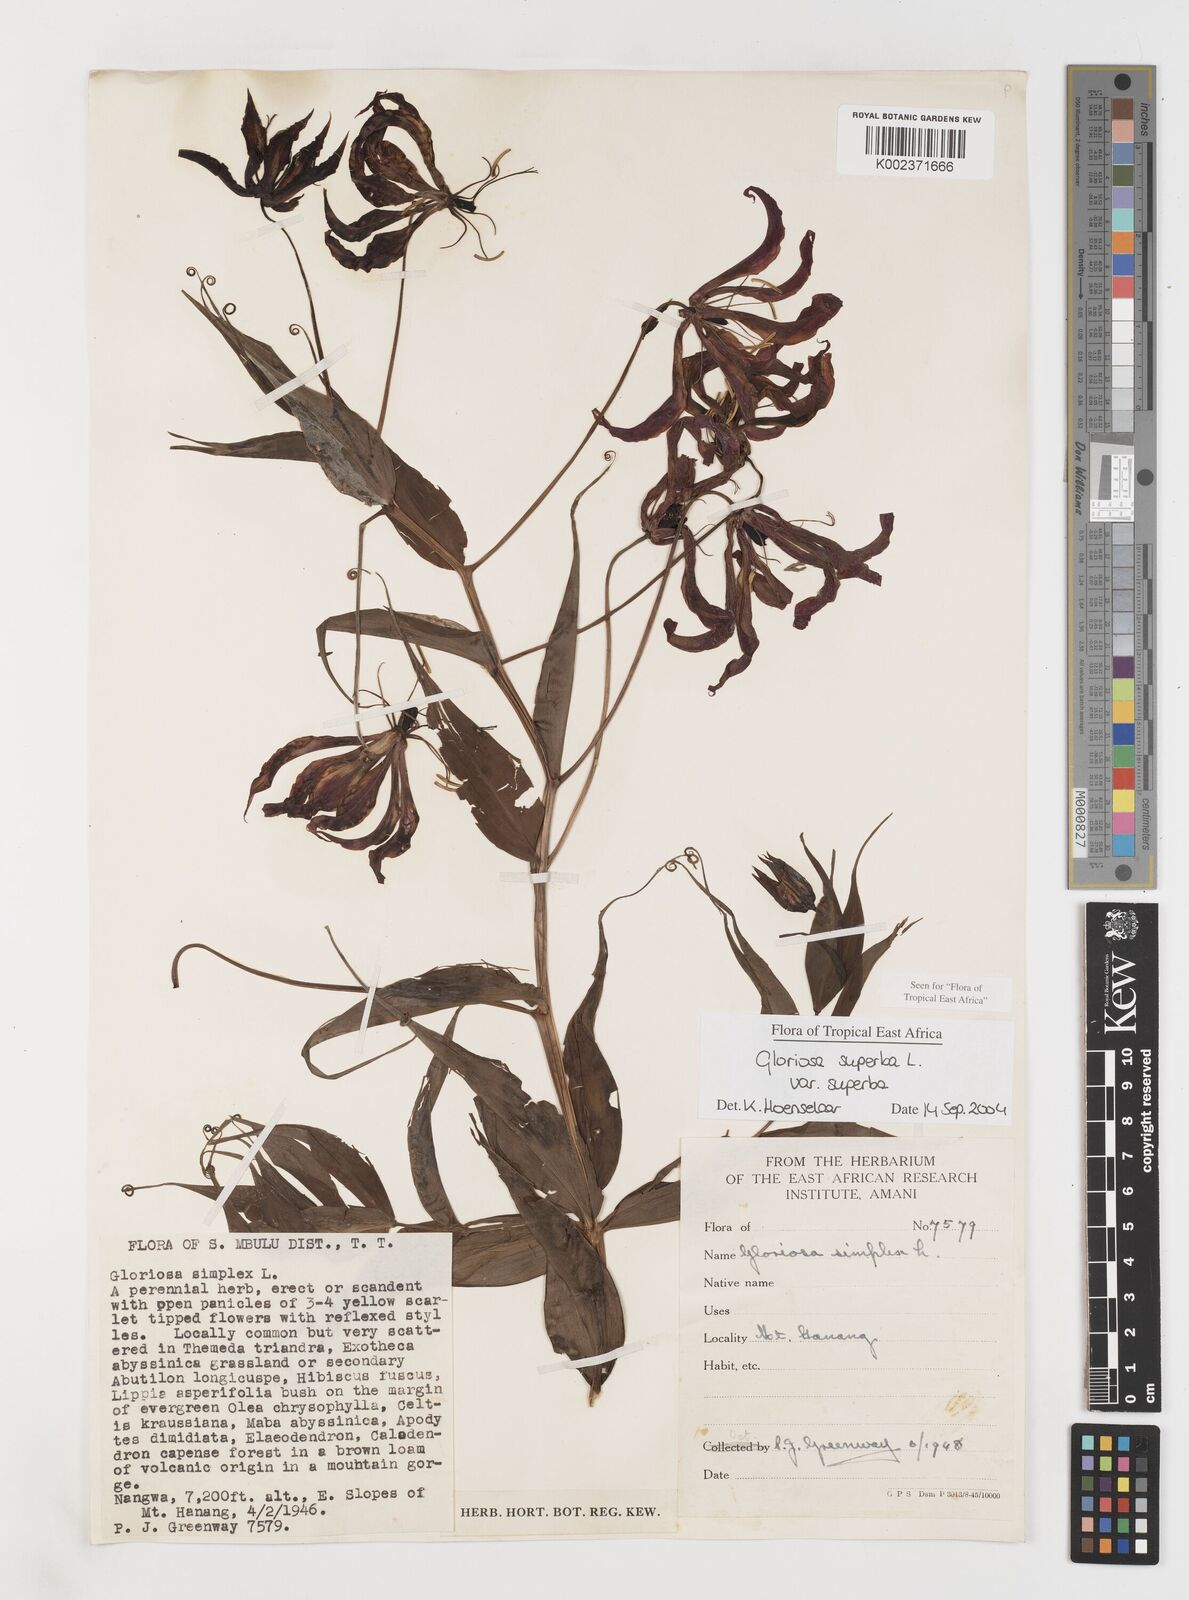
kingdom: Plantae
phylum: Tracheophyta
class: Liliopsida
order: Liliales
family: Colchicaceae
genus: Gloriosa
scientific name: Gloriosa simplex
